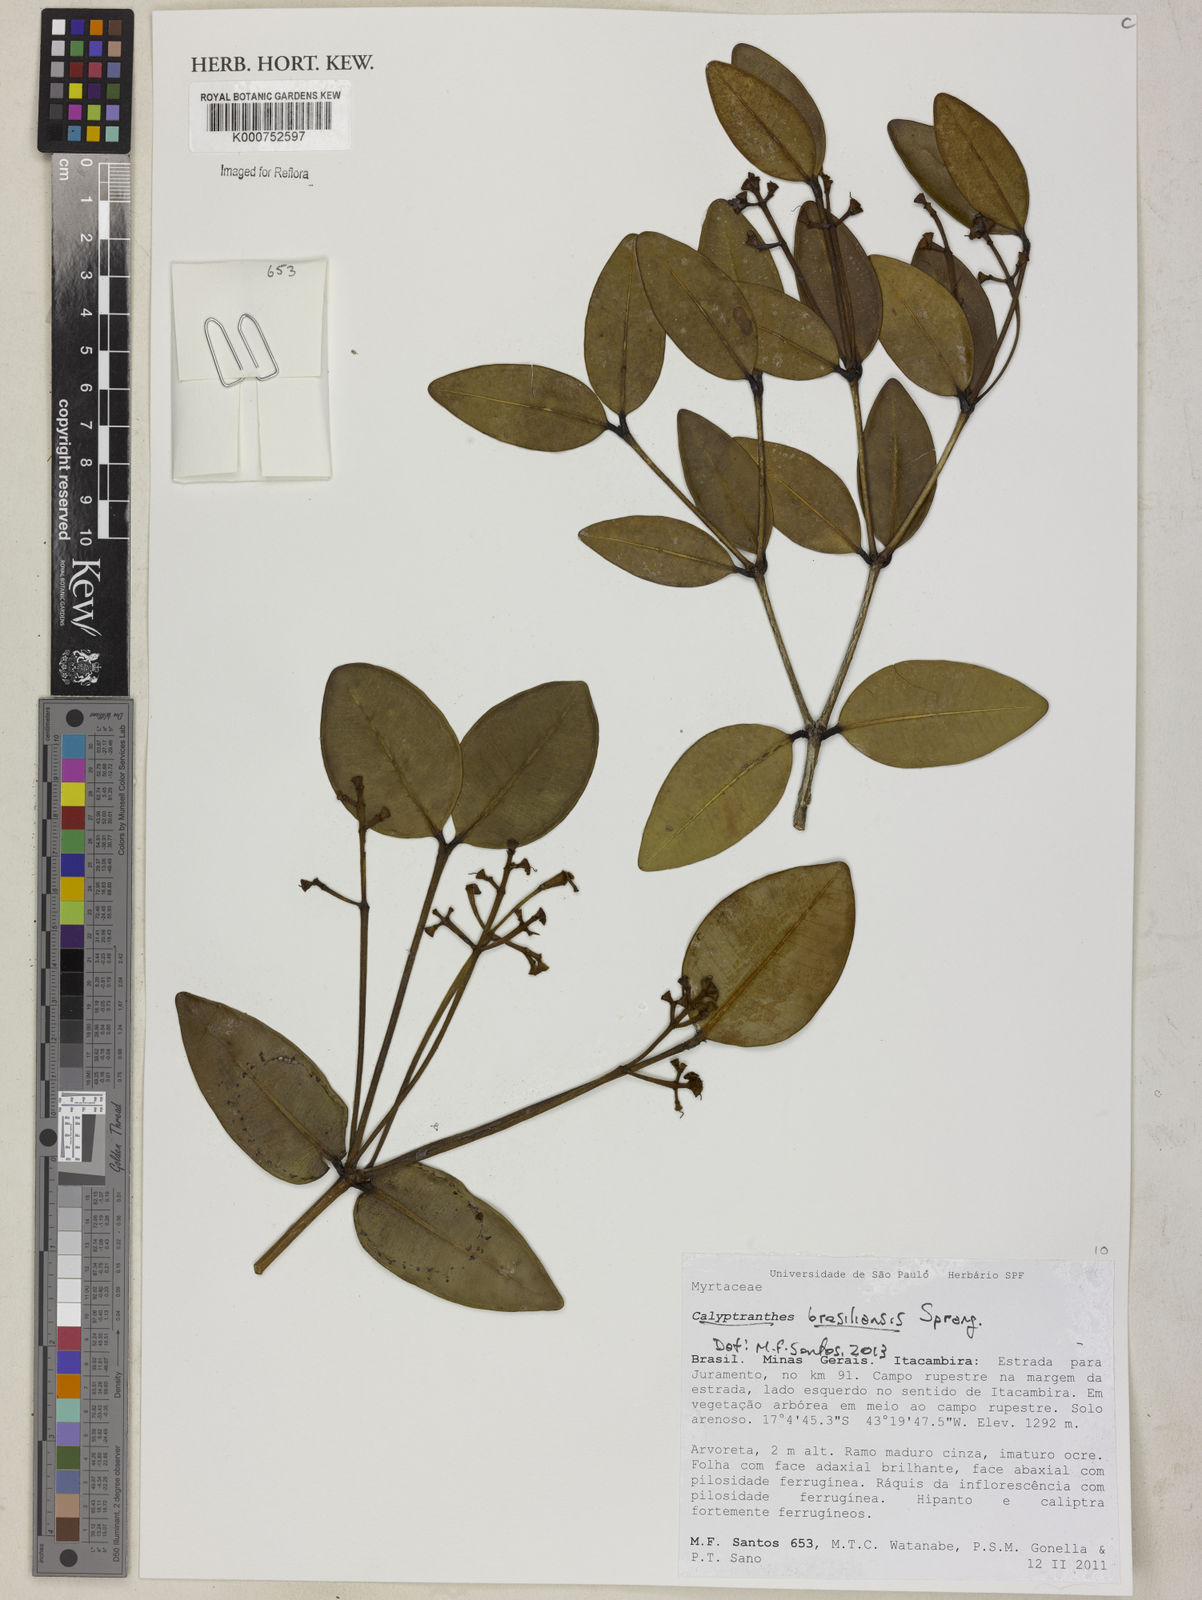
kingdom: Plantae
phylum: Tracheophyta
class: Magnoliopsida
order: Myrtales
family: Myrtaceae
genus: Myrcia
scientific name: Myrcia neobrasiliensis
